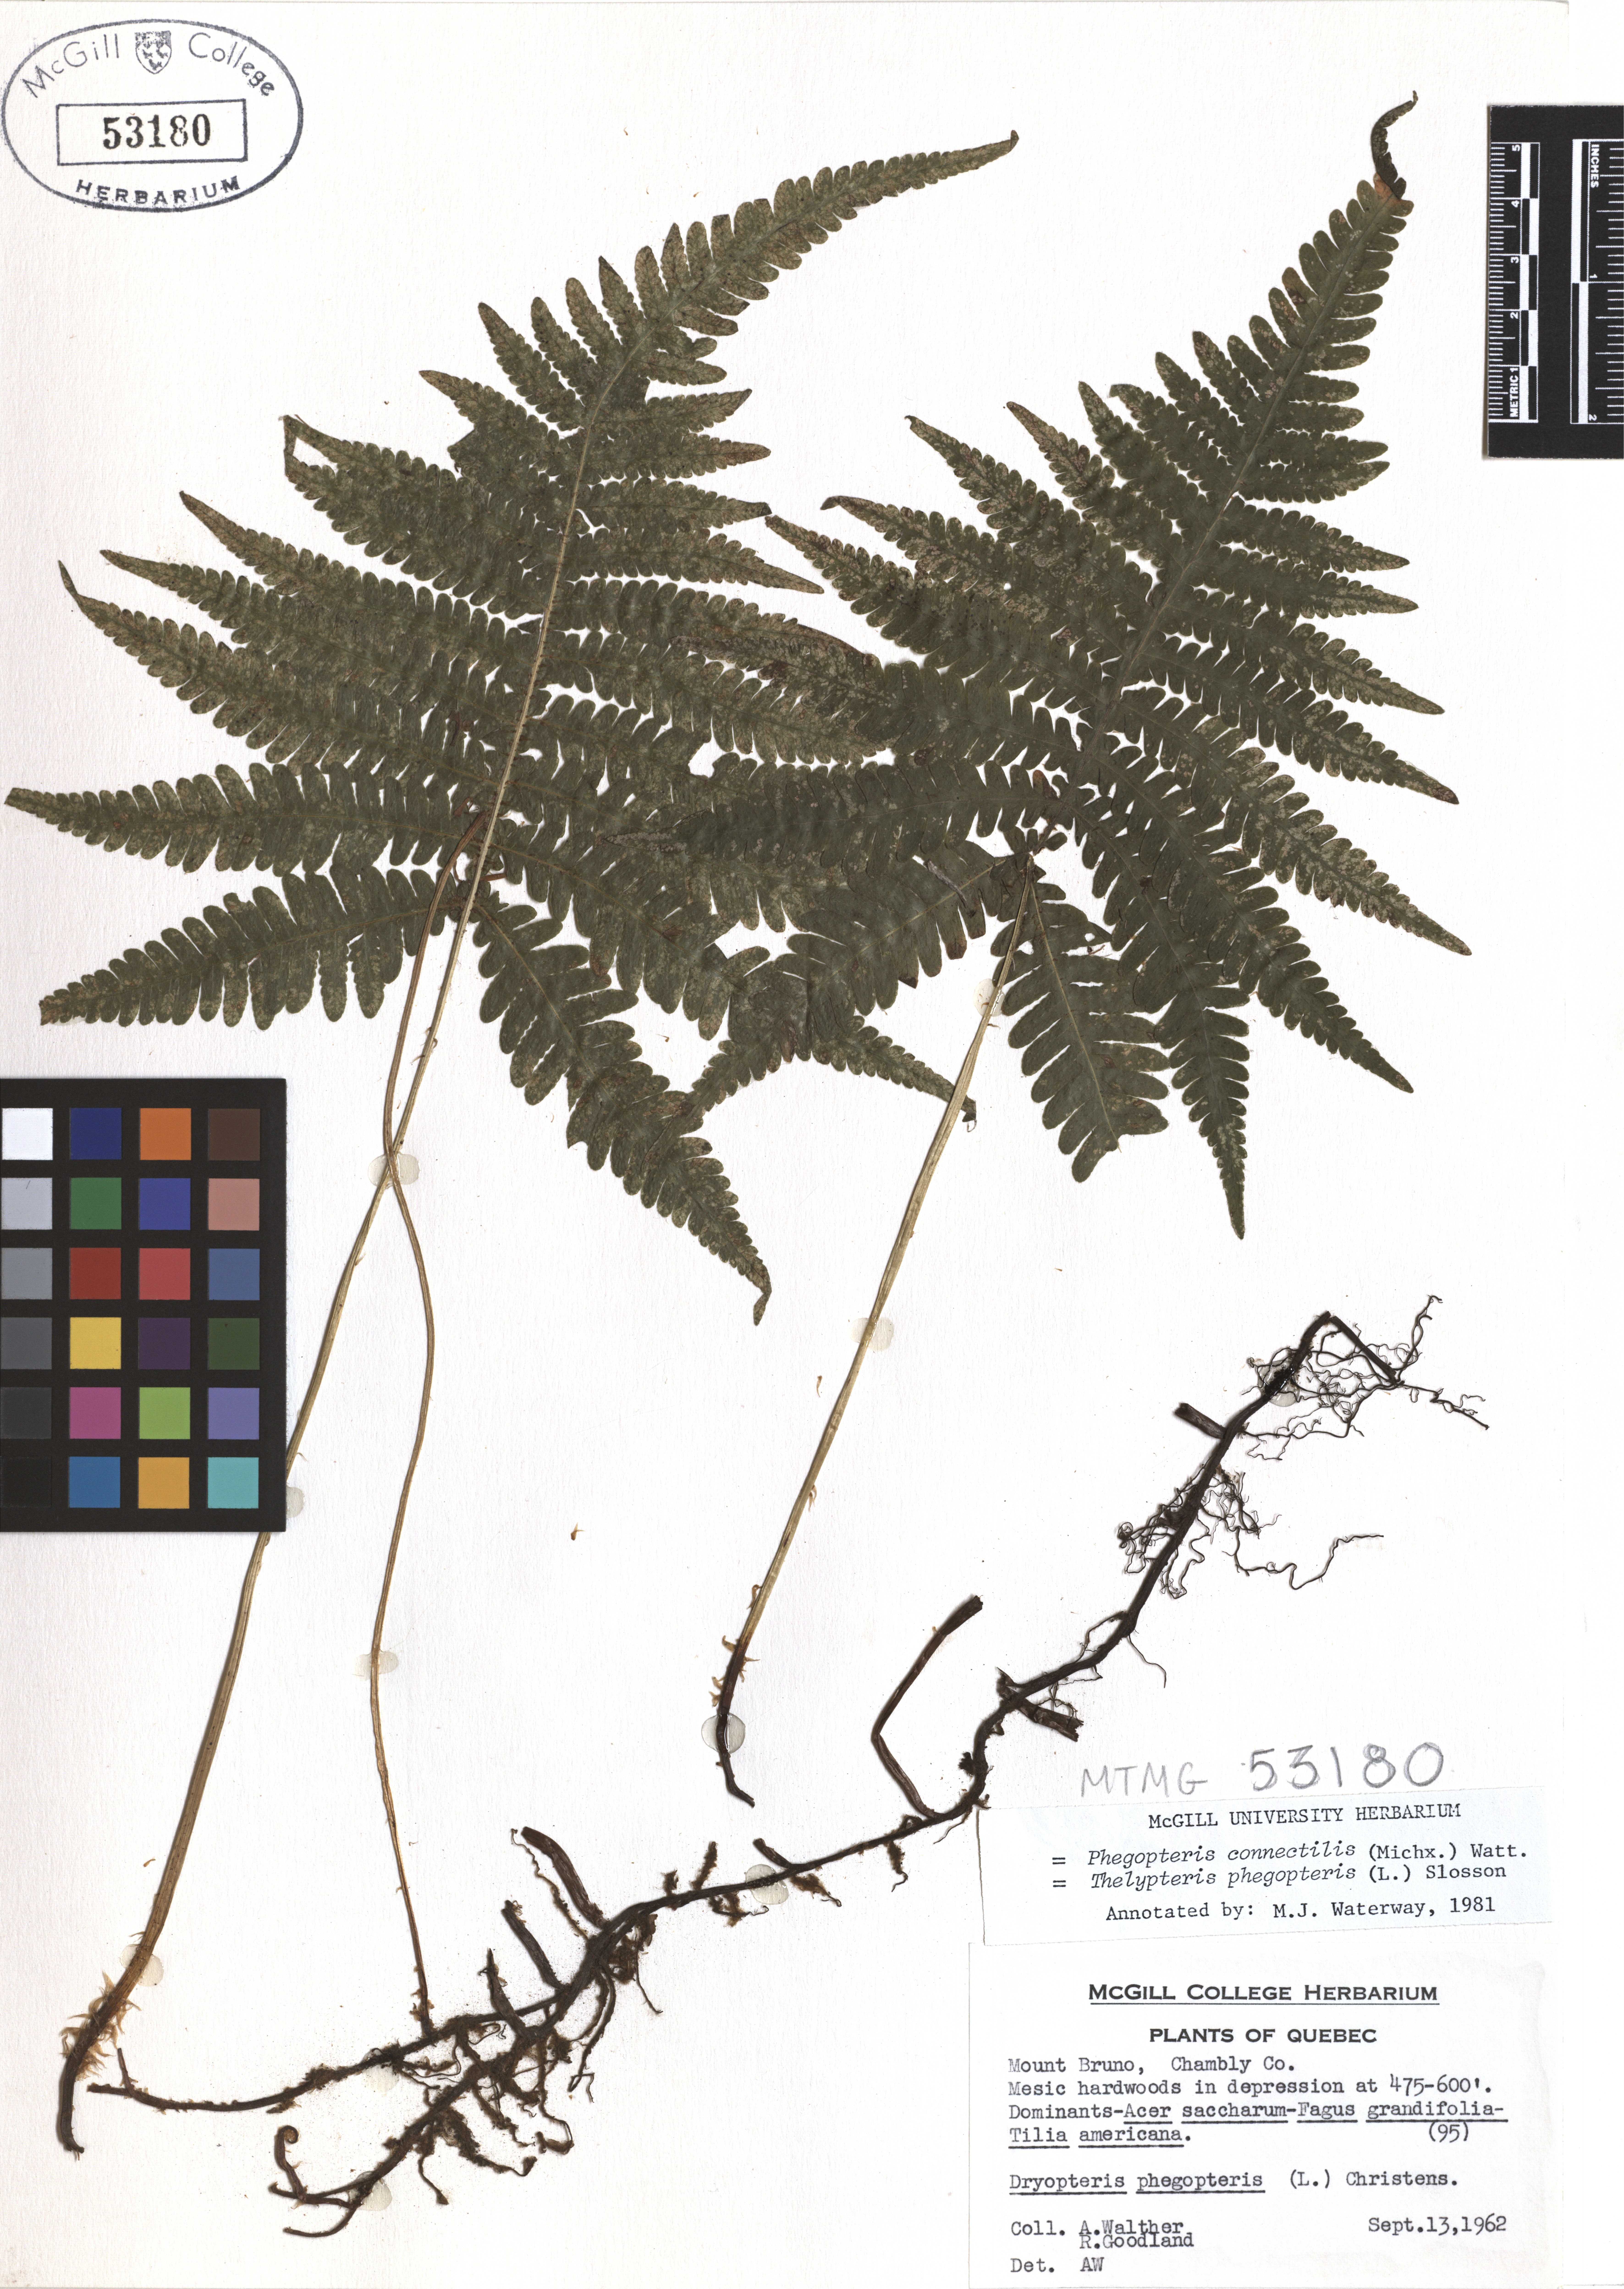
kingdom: Plantae
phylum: Tracheophyta
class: Polypodiopsida
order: Polypodiales
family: Thelypteridaceae
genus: Phegopteris
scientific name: Phegopteris connectilis
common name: Beech fern
